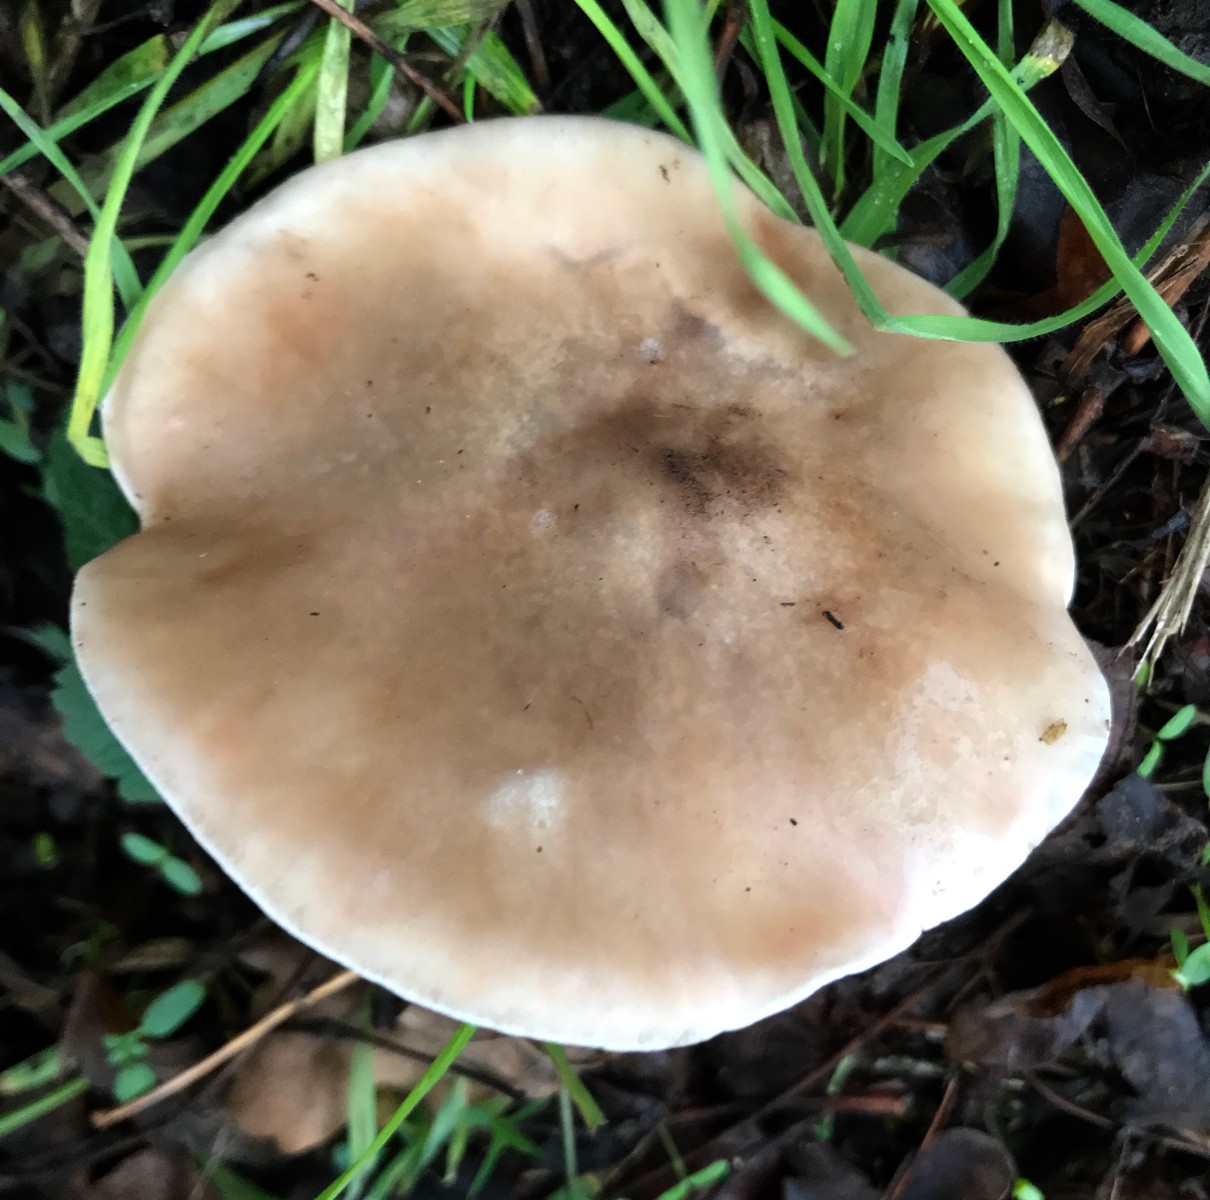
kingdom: Fungi
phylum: Basidiomycota
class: Agaricomycetes
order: Agaricales
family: Tricholomataceae
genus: Lepista
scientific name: Lepista personata
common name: bleg hekseringshat
